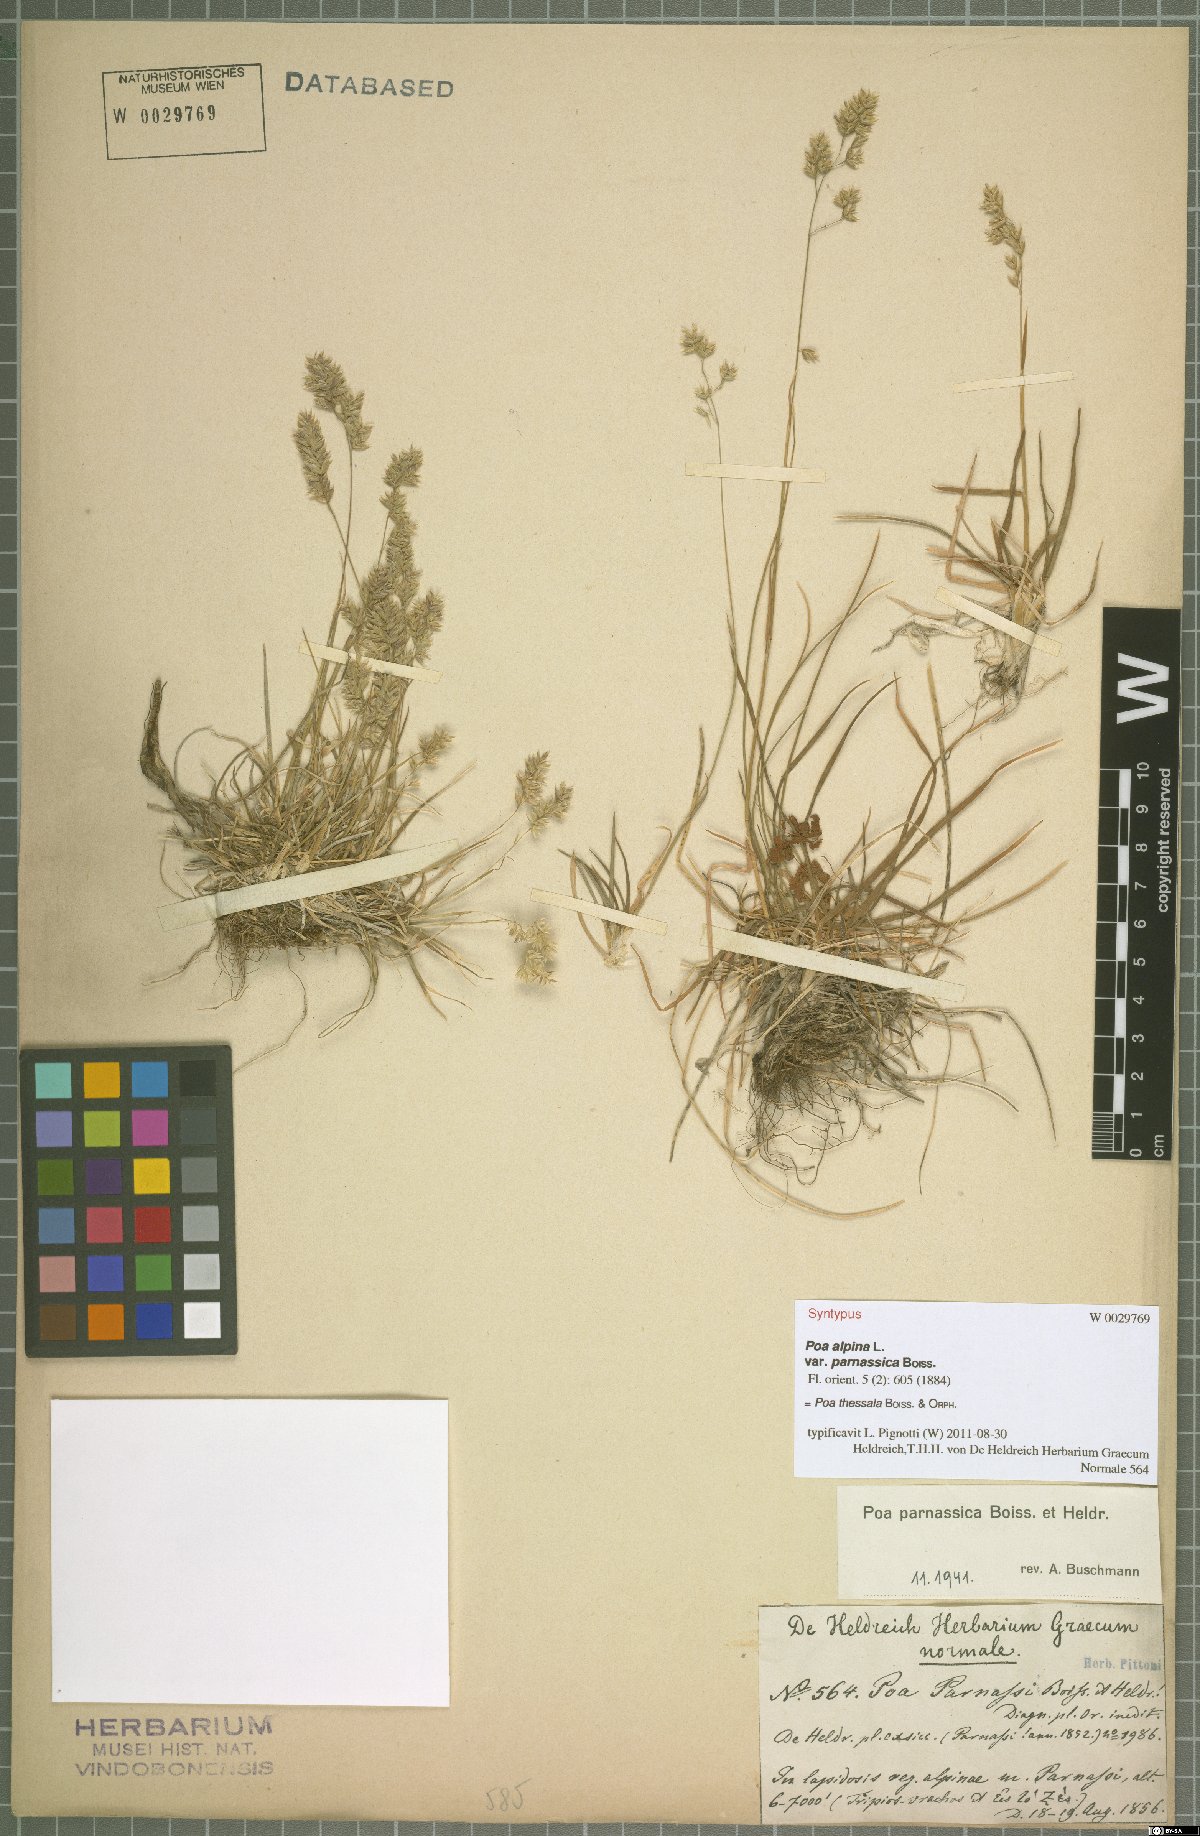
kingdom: Plantae
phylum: Tracheophyta
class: Liliopsida
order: Poales
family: Poaceae
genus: Poa
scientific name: Poa thessala
